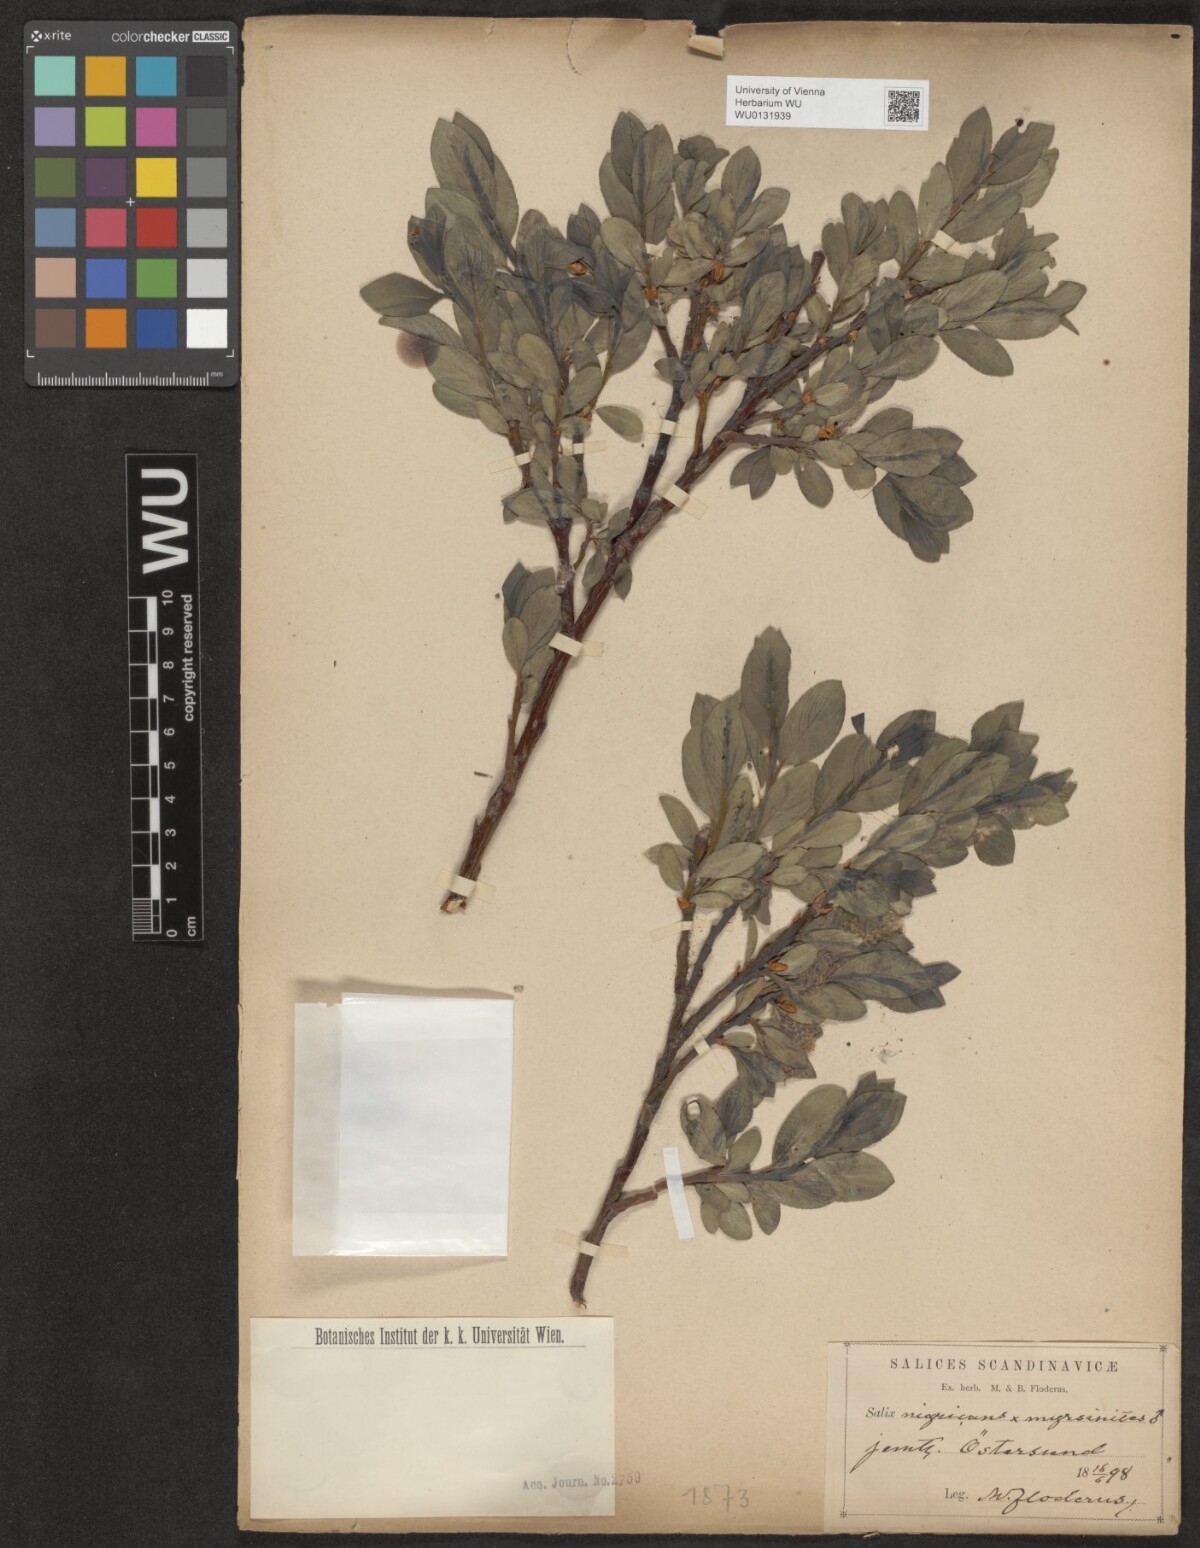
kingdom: Plantae
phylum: Tracheophyta
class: Magnoliopsida
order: Malpighiales
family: Salicaceae
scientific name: Salicaceae
